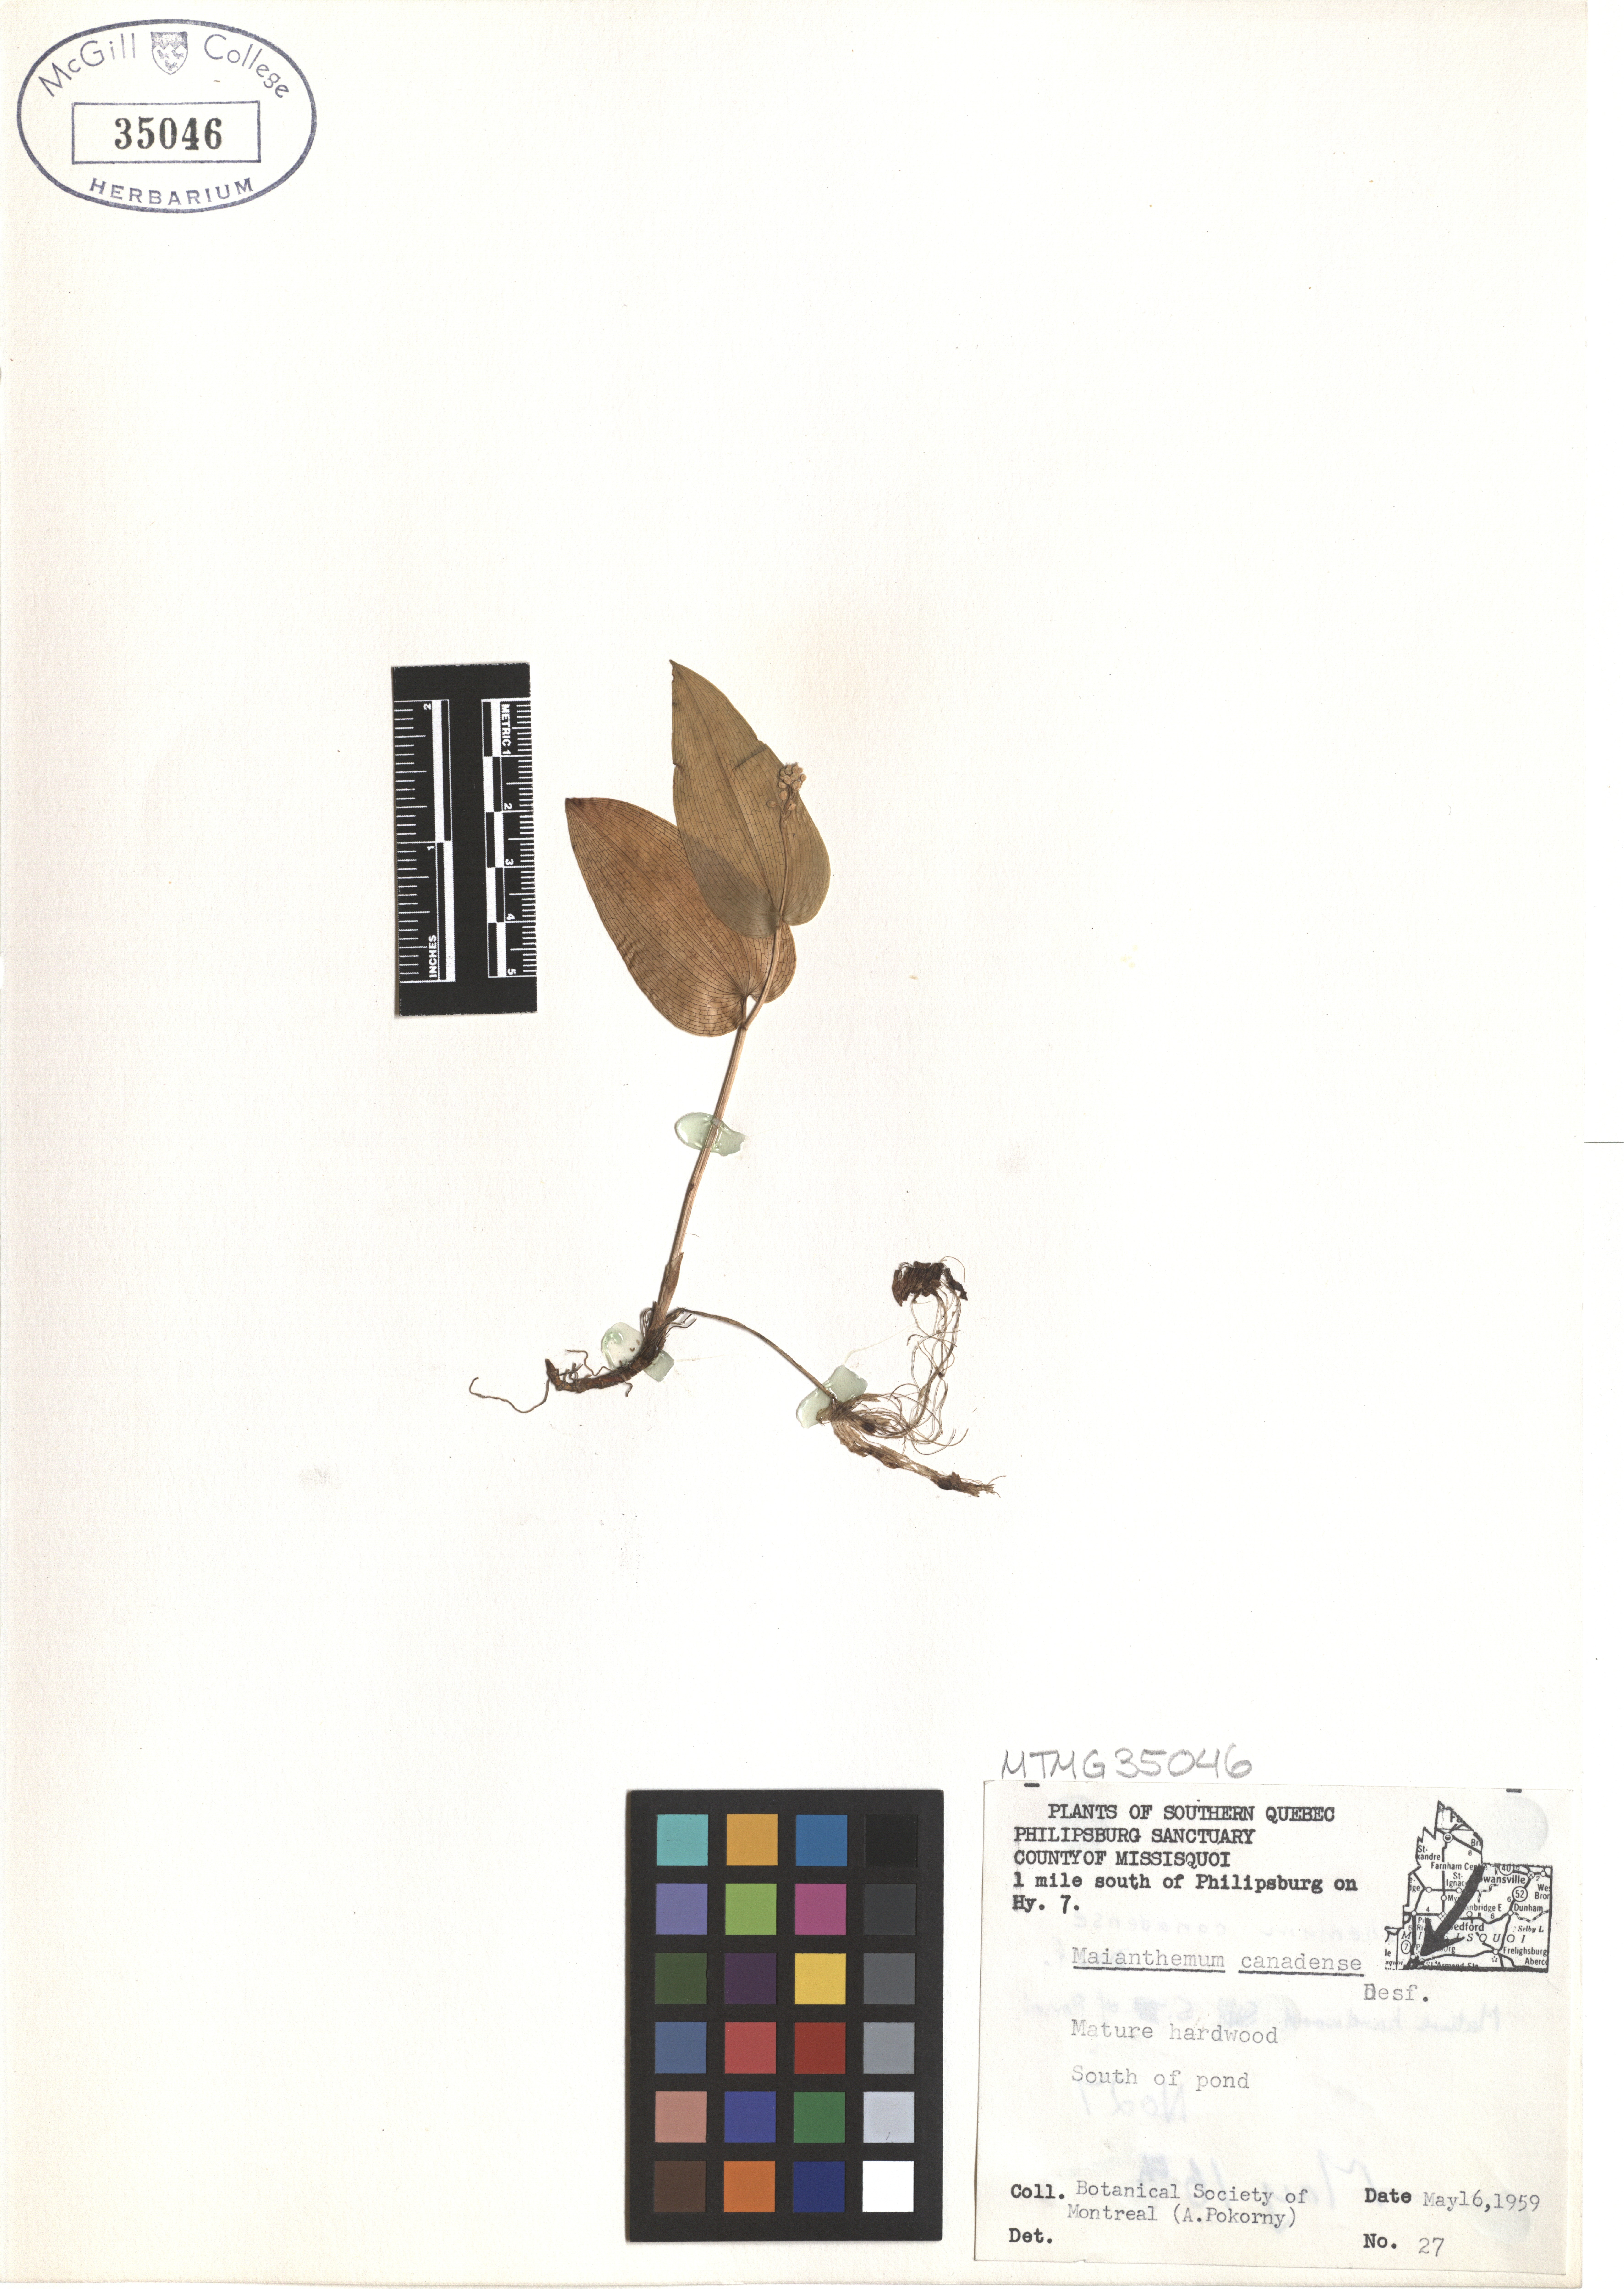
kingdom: Plantae
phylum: Tracheophyta
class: Liliopsida
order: Asparagales
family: Asparagaceae
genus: Maianthemum
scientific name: Maianthemum canadense
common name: False lily-of-the-valley
